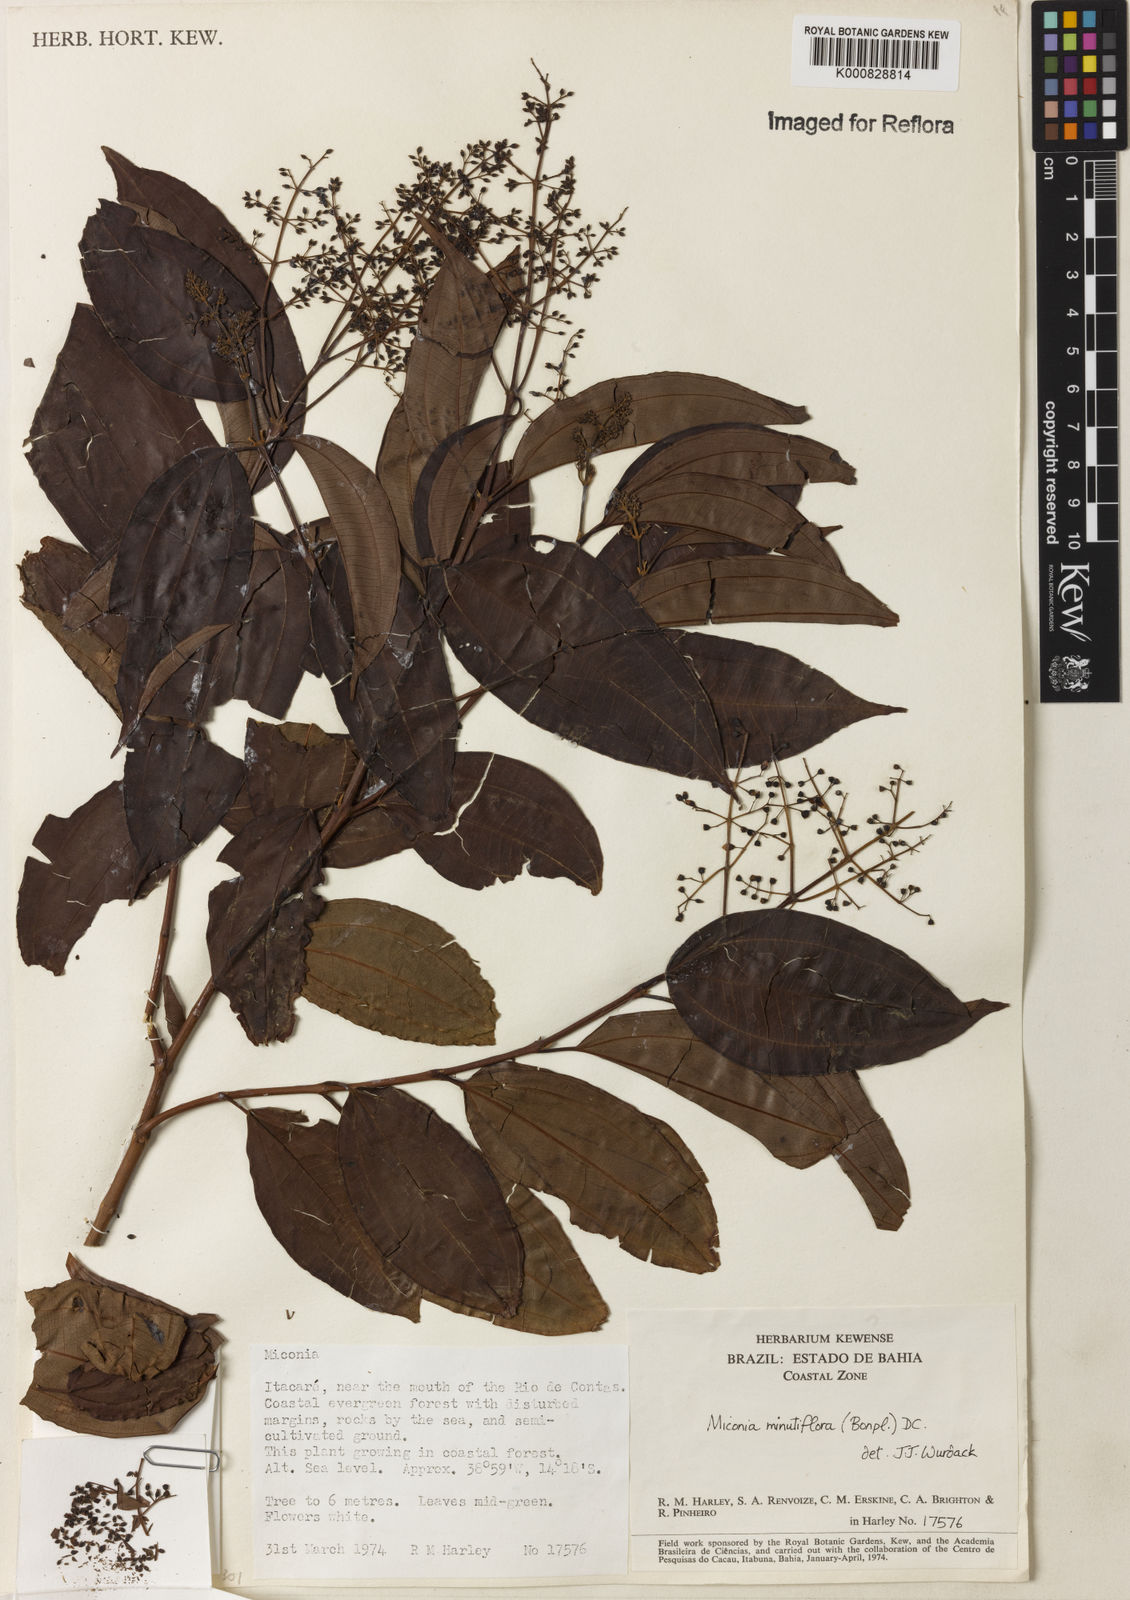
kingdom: Plantae
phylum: Tracheophyta
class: Magnoliopsida
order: Myrtales
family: Melastomataceae
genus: Miconia
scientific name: Miconia minutiflora
